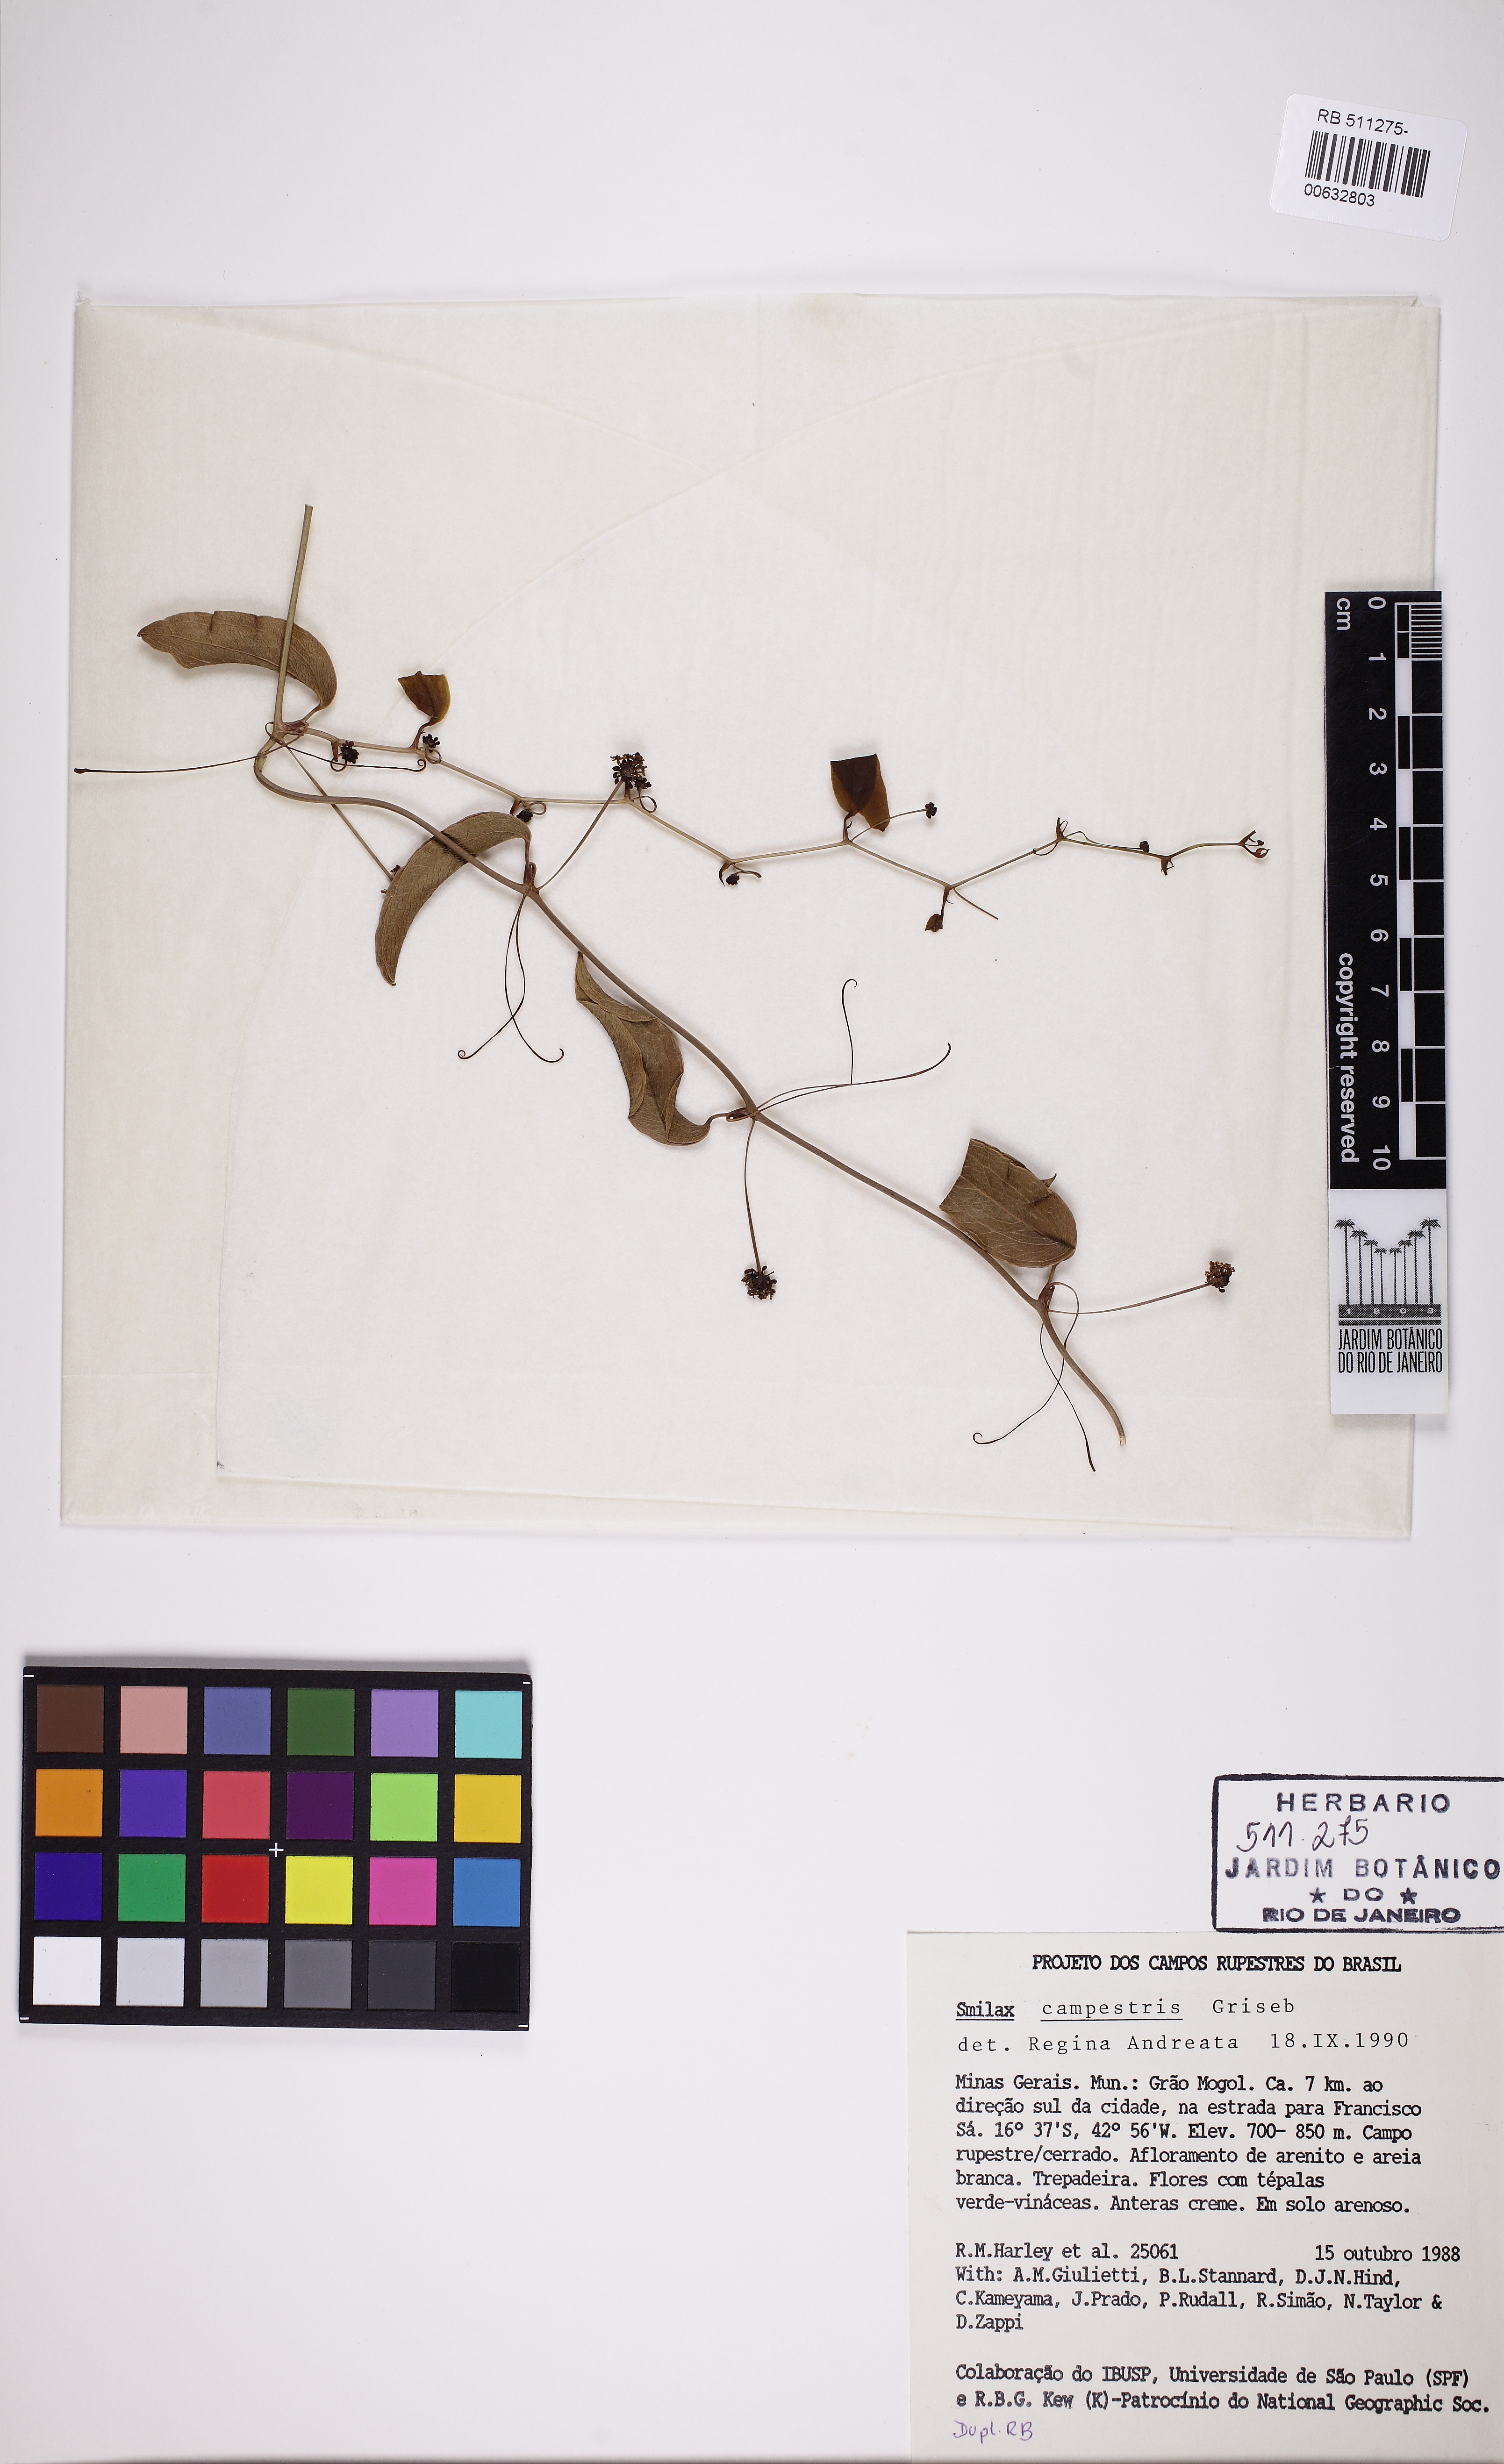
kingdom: Plantae
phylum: Tracheophyta
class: Liliopsida
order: Liliales
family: Smilacaceae
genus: Smilax
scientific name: Smilax campestris
